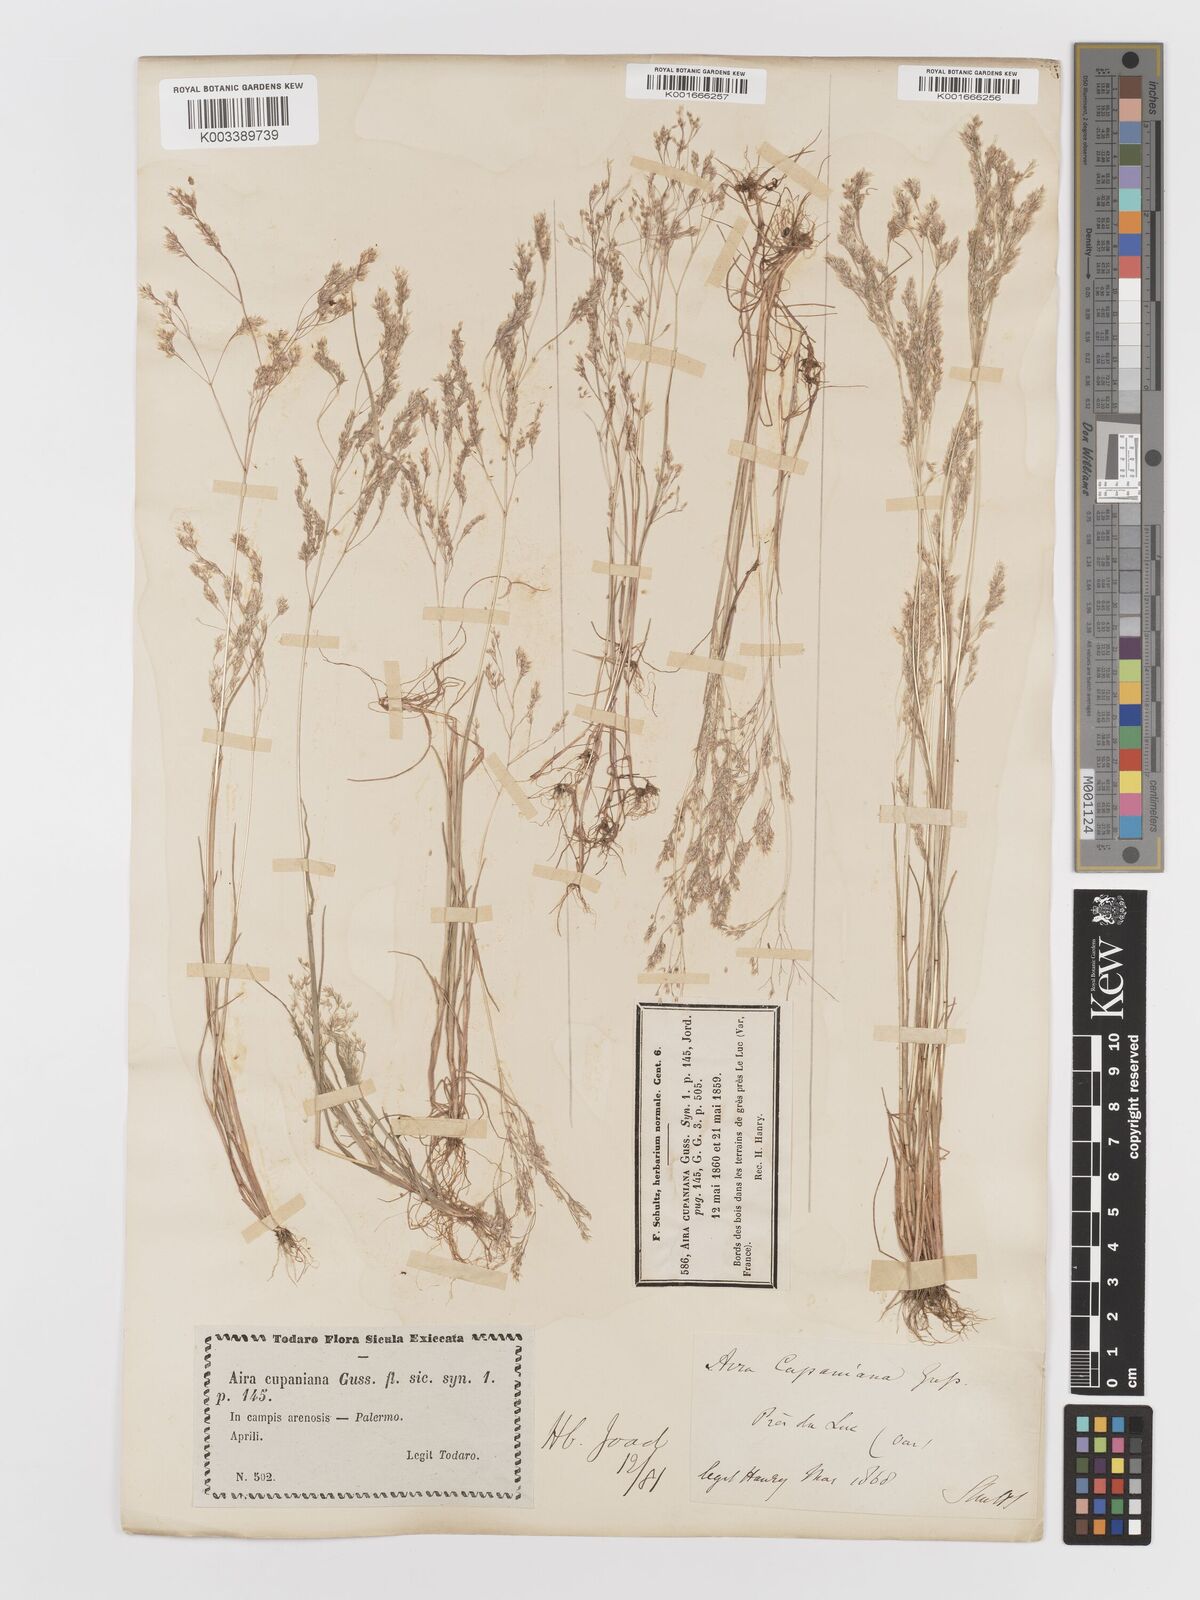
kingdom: Plantae
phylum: Tracheophyta
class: Liliopsida
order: Poales
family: Poaceae
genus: Aira
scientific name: Aira cupaniana
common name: Silver hairgrass
